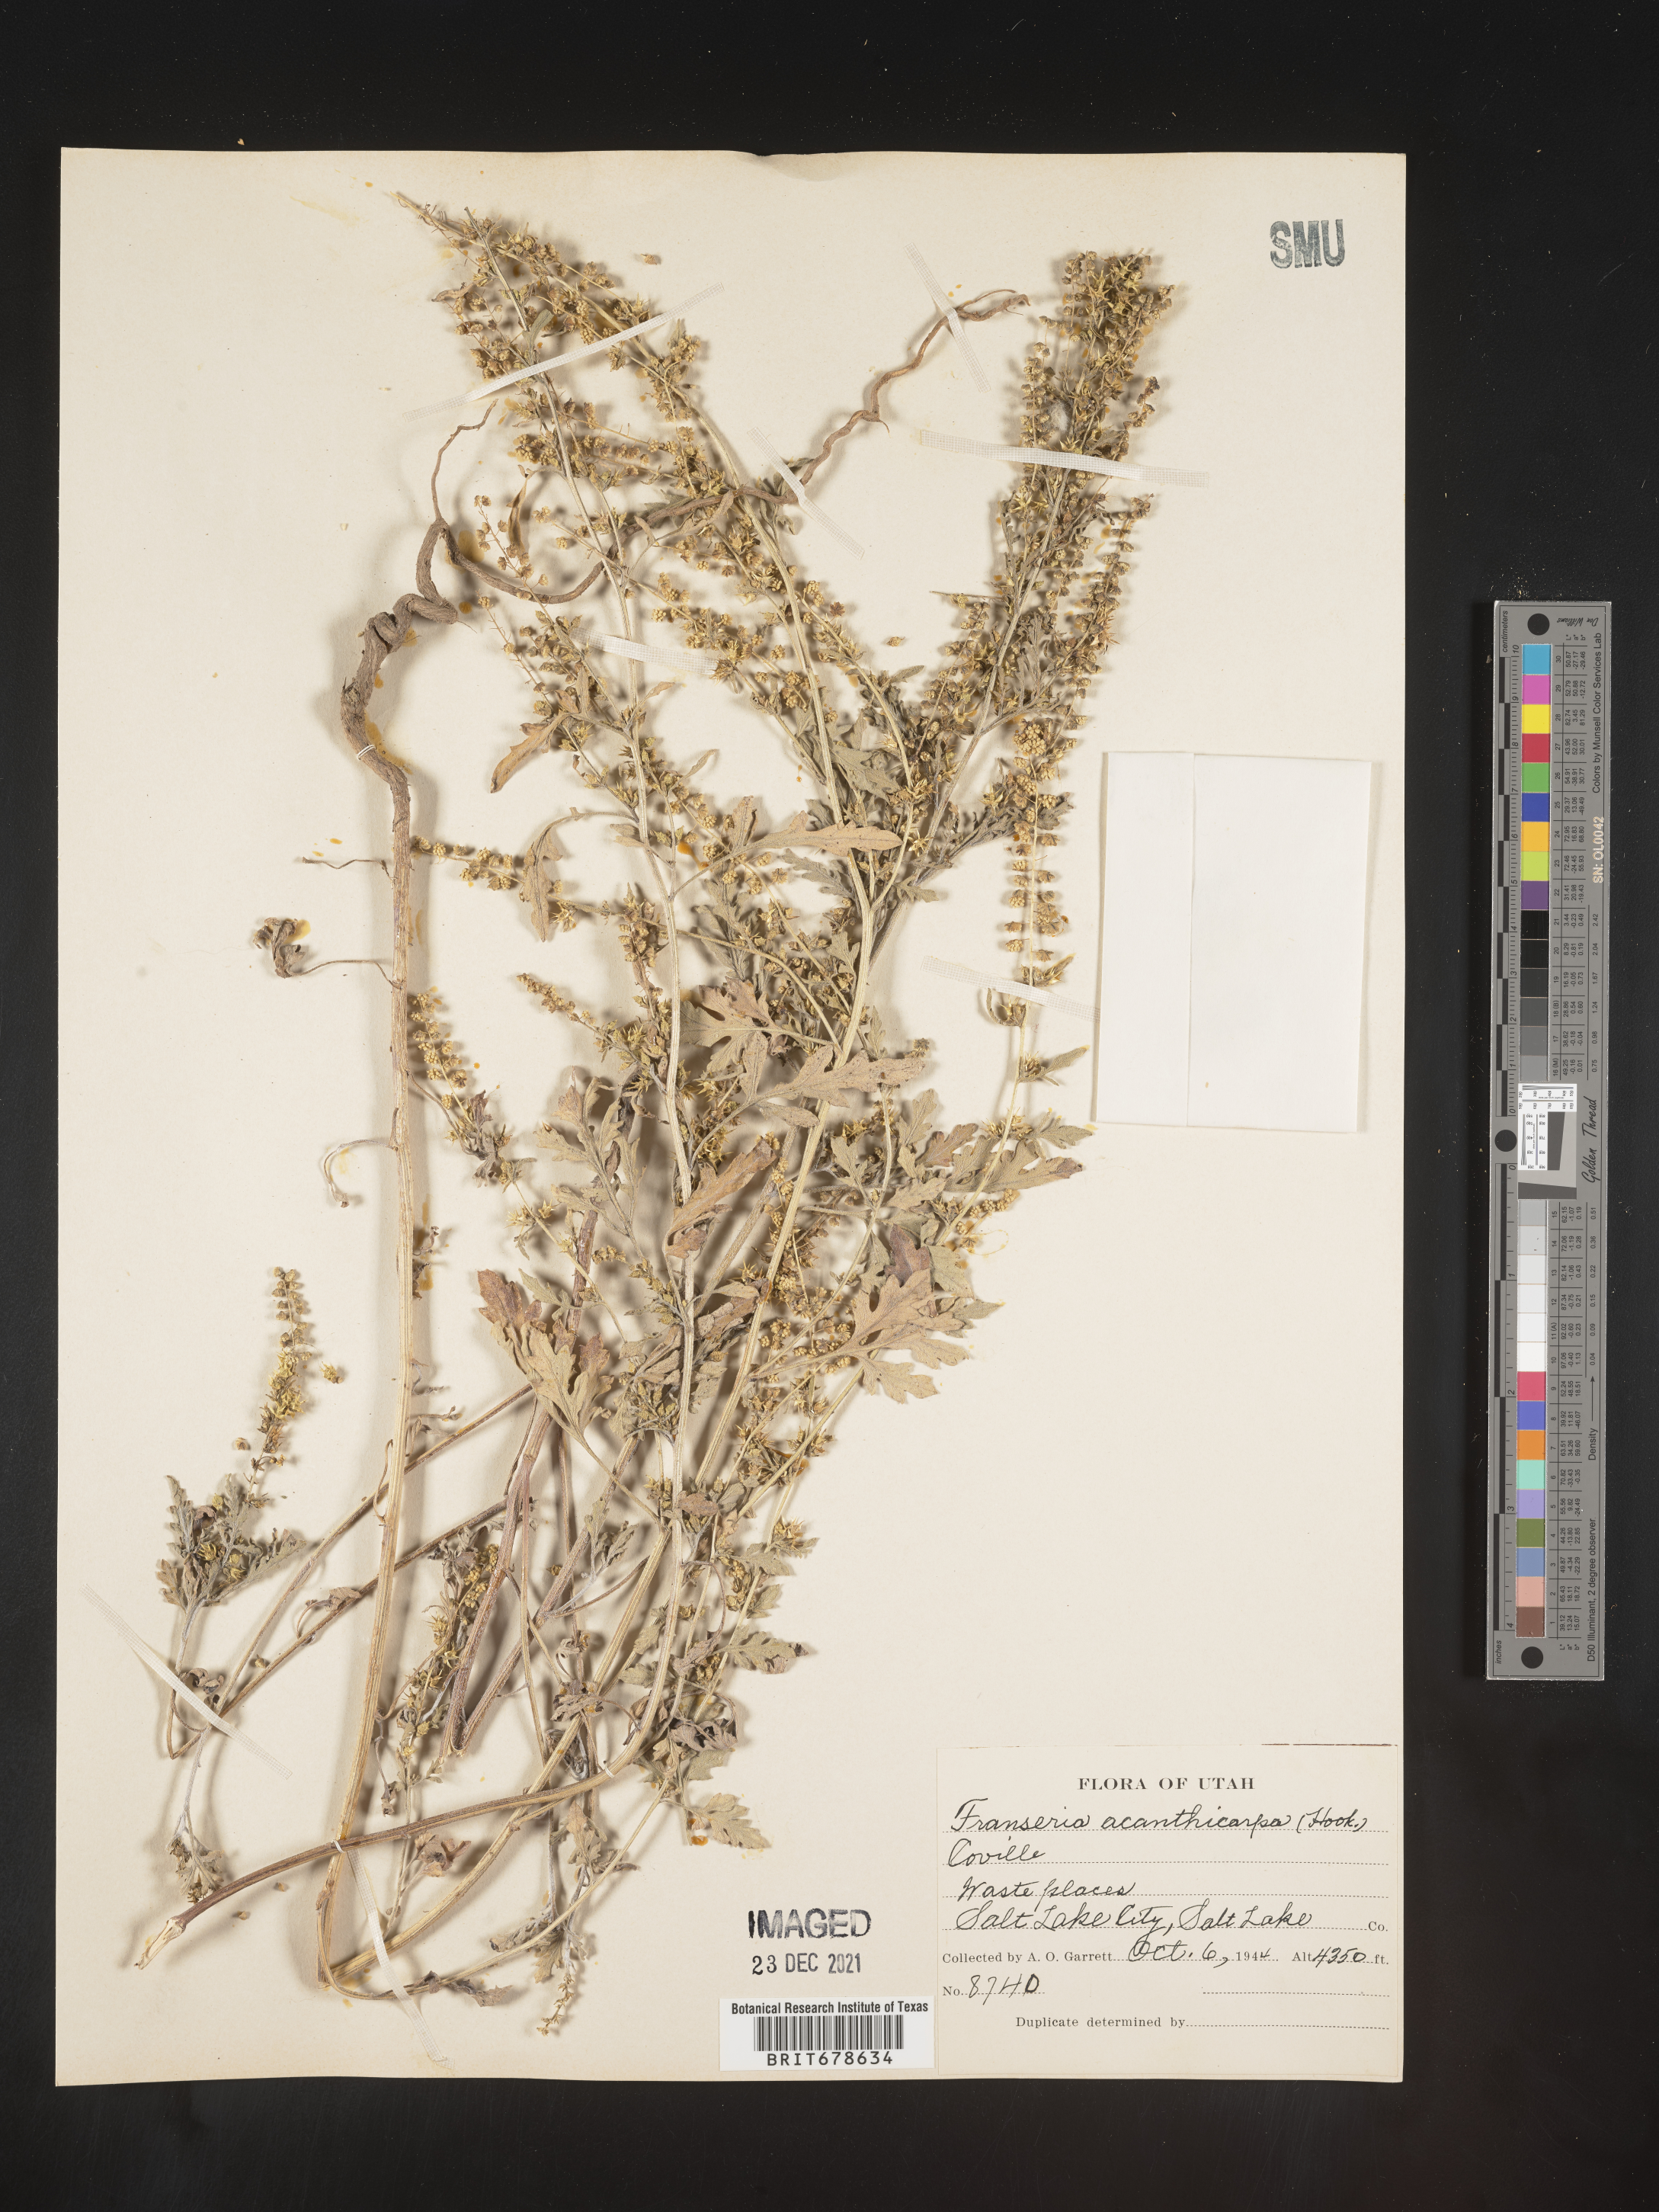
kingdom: Plantae
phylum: Tracheophyta
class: Magnoliopsida
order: Asterales
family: Asteraceae
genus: Ambrosia
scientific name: Ambrosia acanthicarpa
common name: Hooker's bur ragweed
